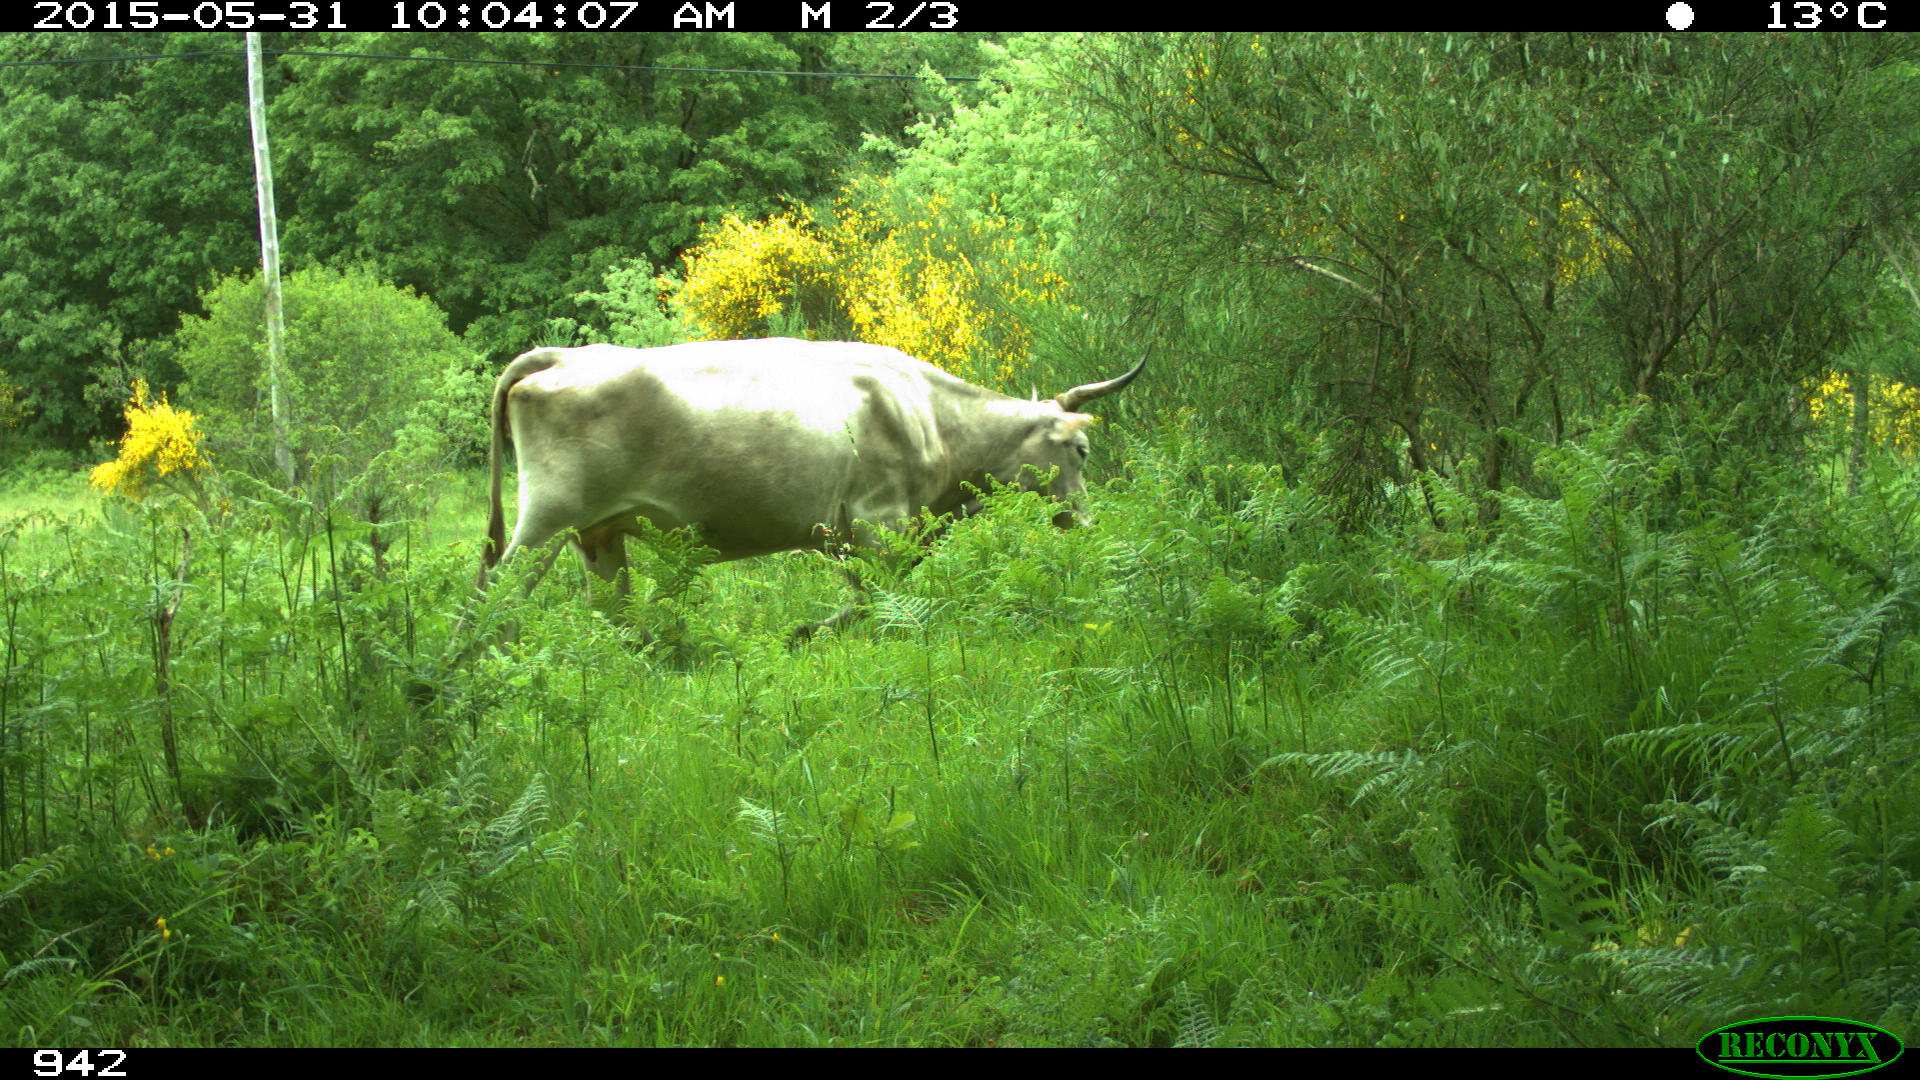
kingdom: Animalia
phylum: Chordata
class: Mammalia
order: Artiodactyla
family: Bovidae
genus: Bos
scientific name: Bos taurus
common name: Domesticated cattle
